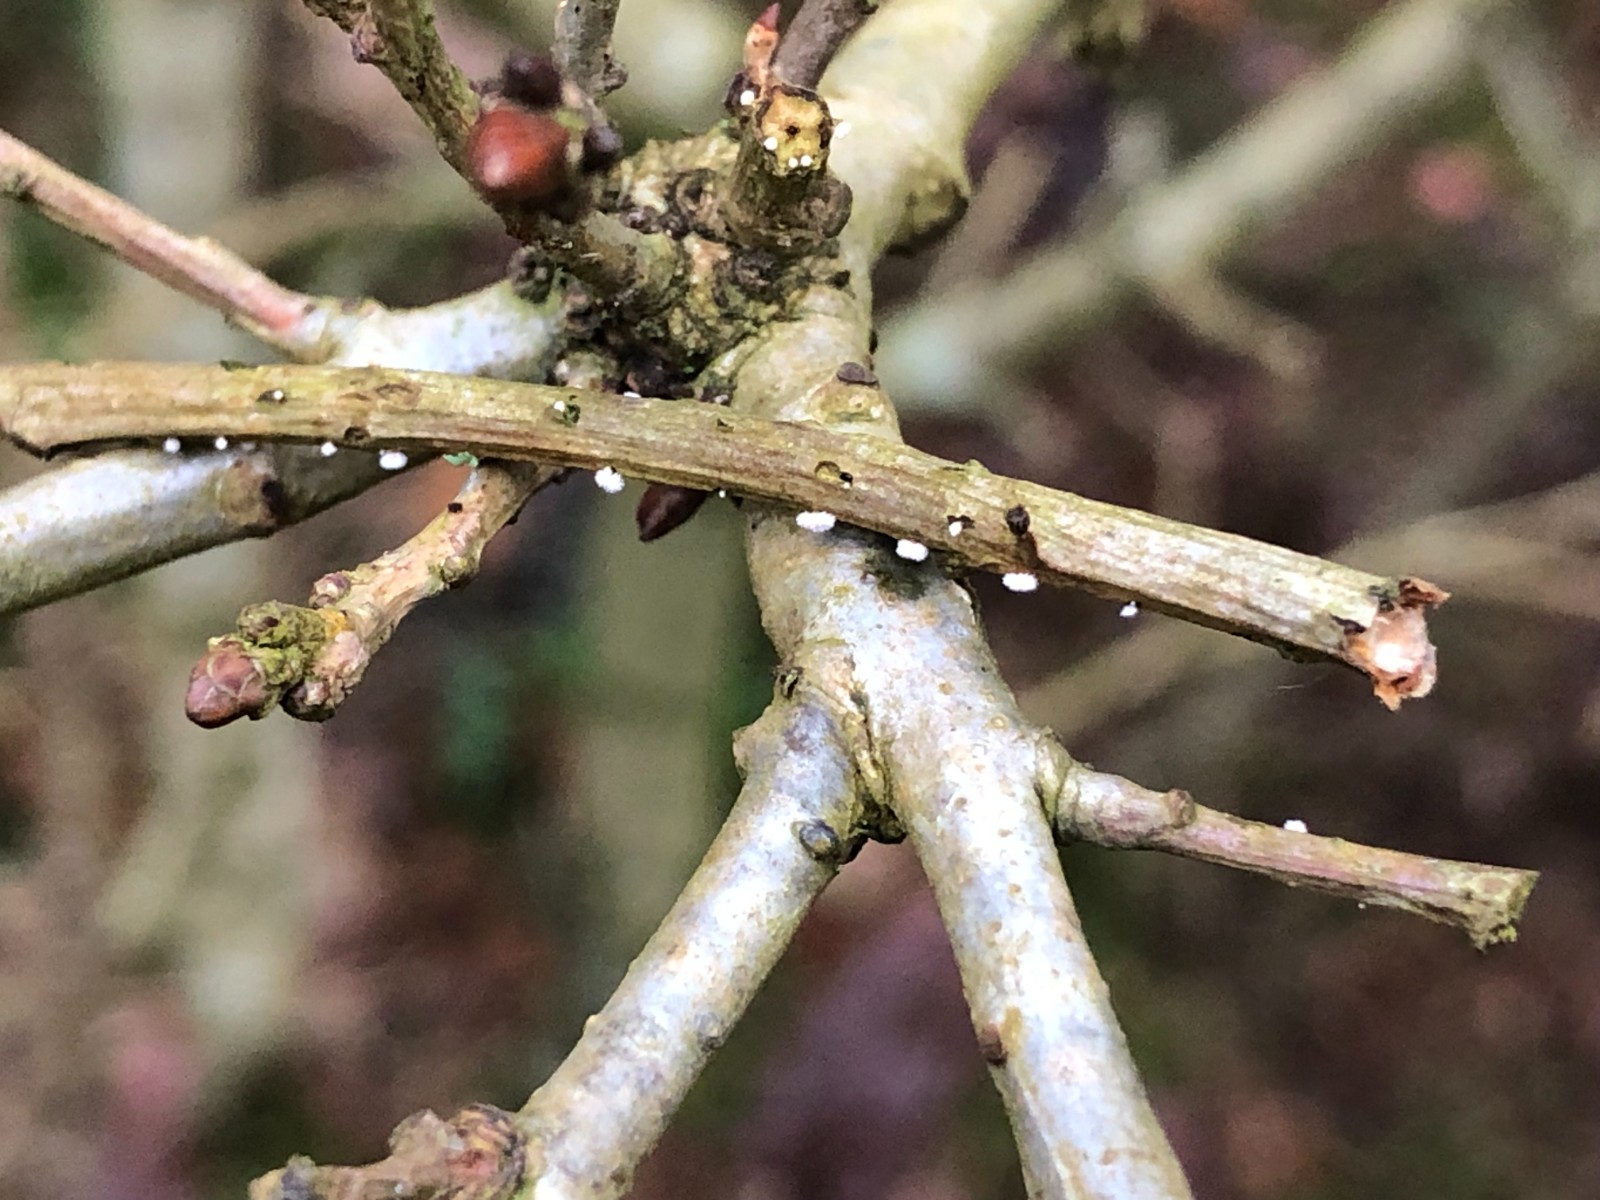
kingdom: Fungi
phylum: Ascomycota
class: Leotiomycetes
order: Helotiales
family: Lachnaceae
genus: Capitotricha
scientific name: Capitotricha bicolor
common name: prægtig frynseskive
